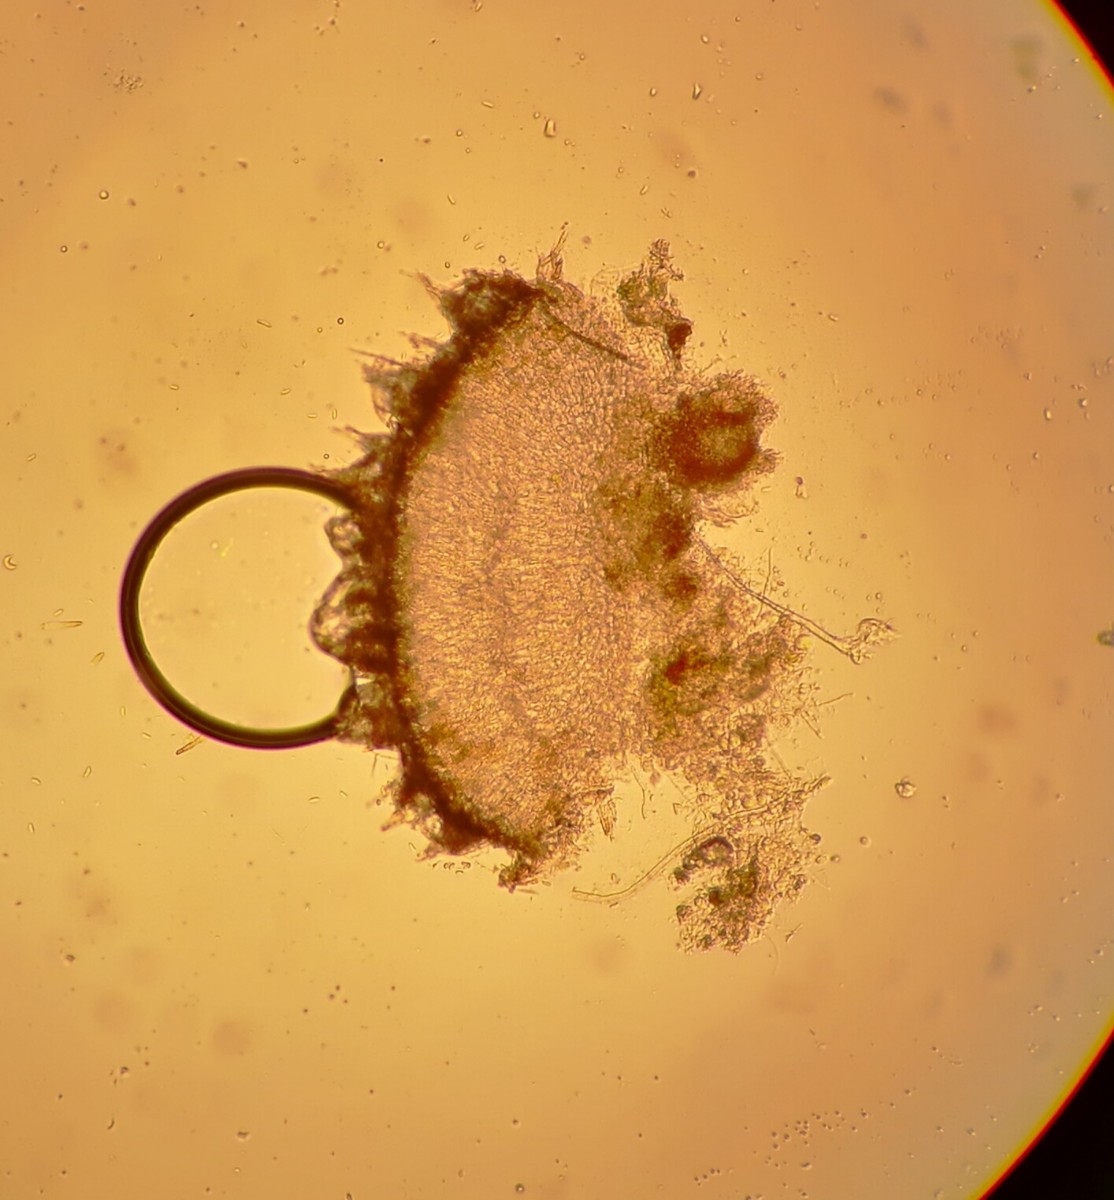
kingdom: Fungi
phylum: Ascomycota
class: Leotiomycetes
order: Helotiales
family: Hyaloscyphaceae
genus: Protounguicularia
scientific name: Protounguicularia transiens
